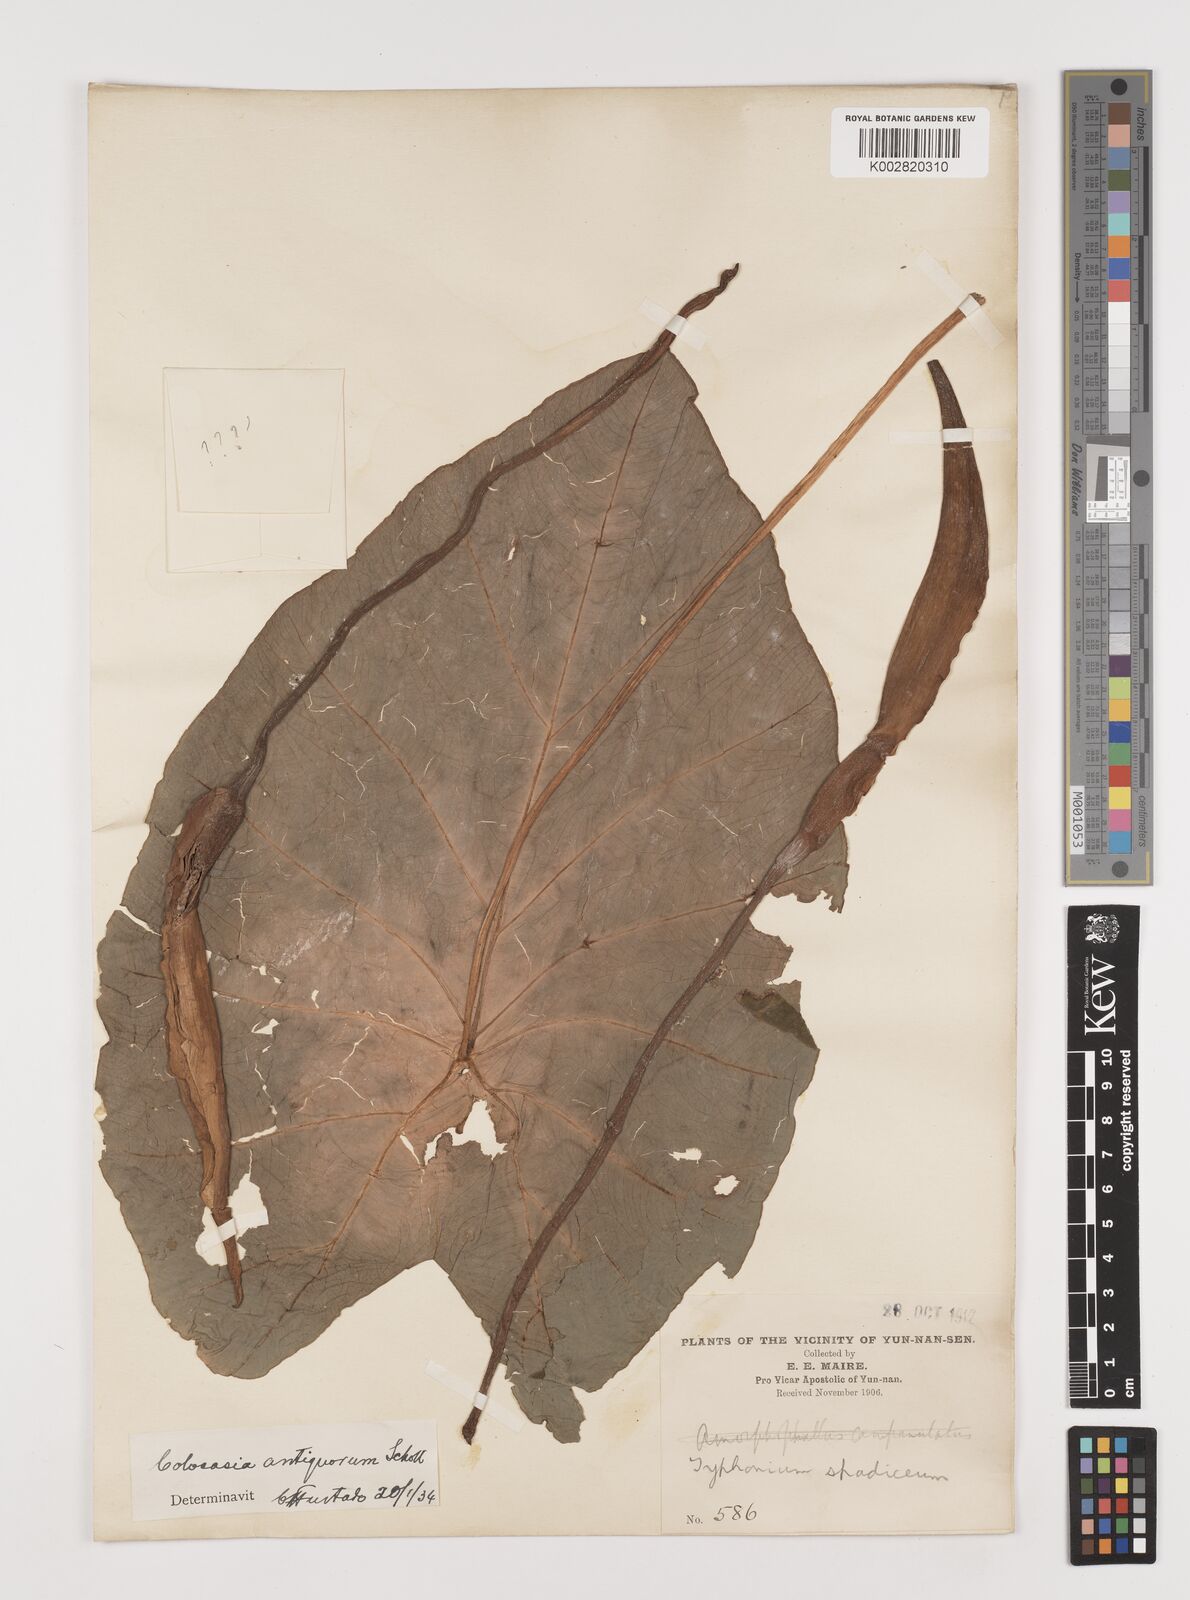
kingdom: Plantae
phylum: Tracheophyta
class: Liliopsida
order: Alismatales
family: Araceae
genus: Colocasia
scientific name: Colocasia esculenta
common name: Taro
